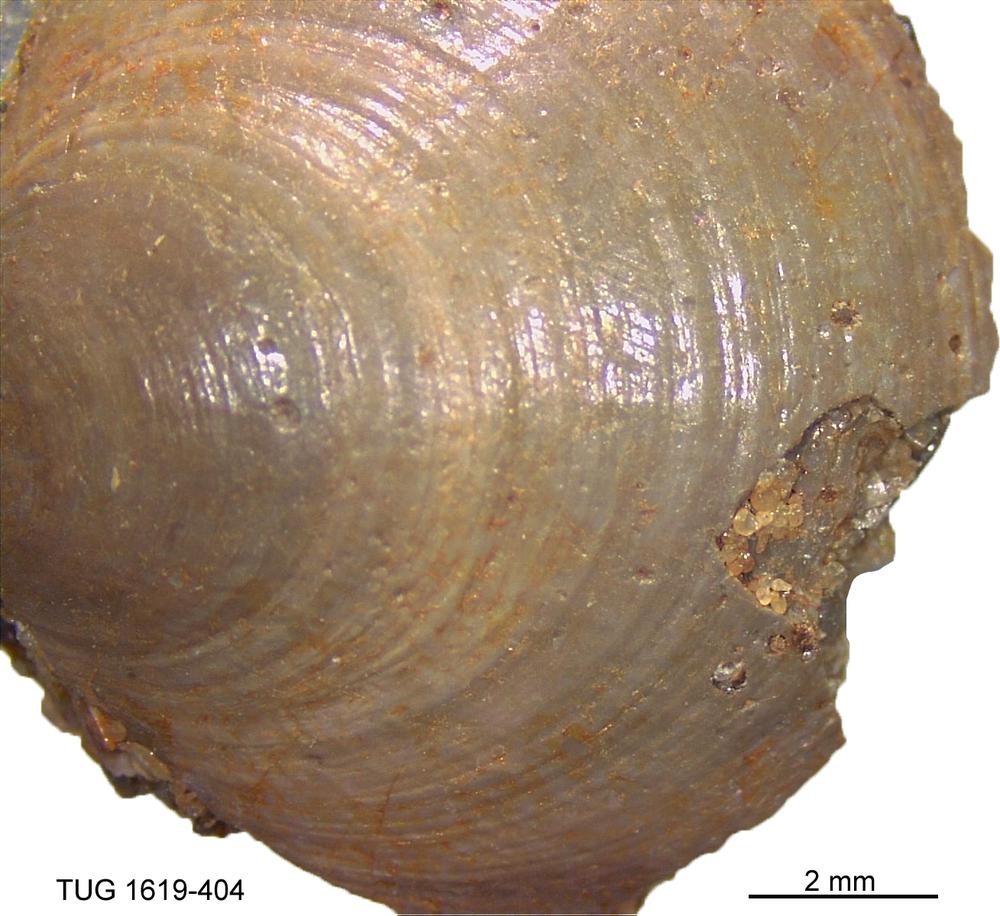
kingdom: Animalia
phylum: Porifera
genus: Ungula
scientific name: Ungula
